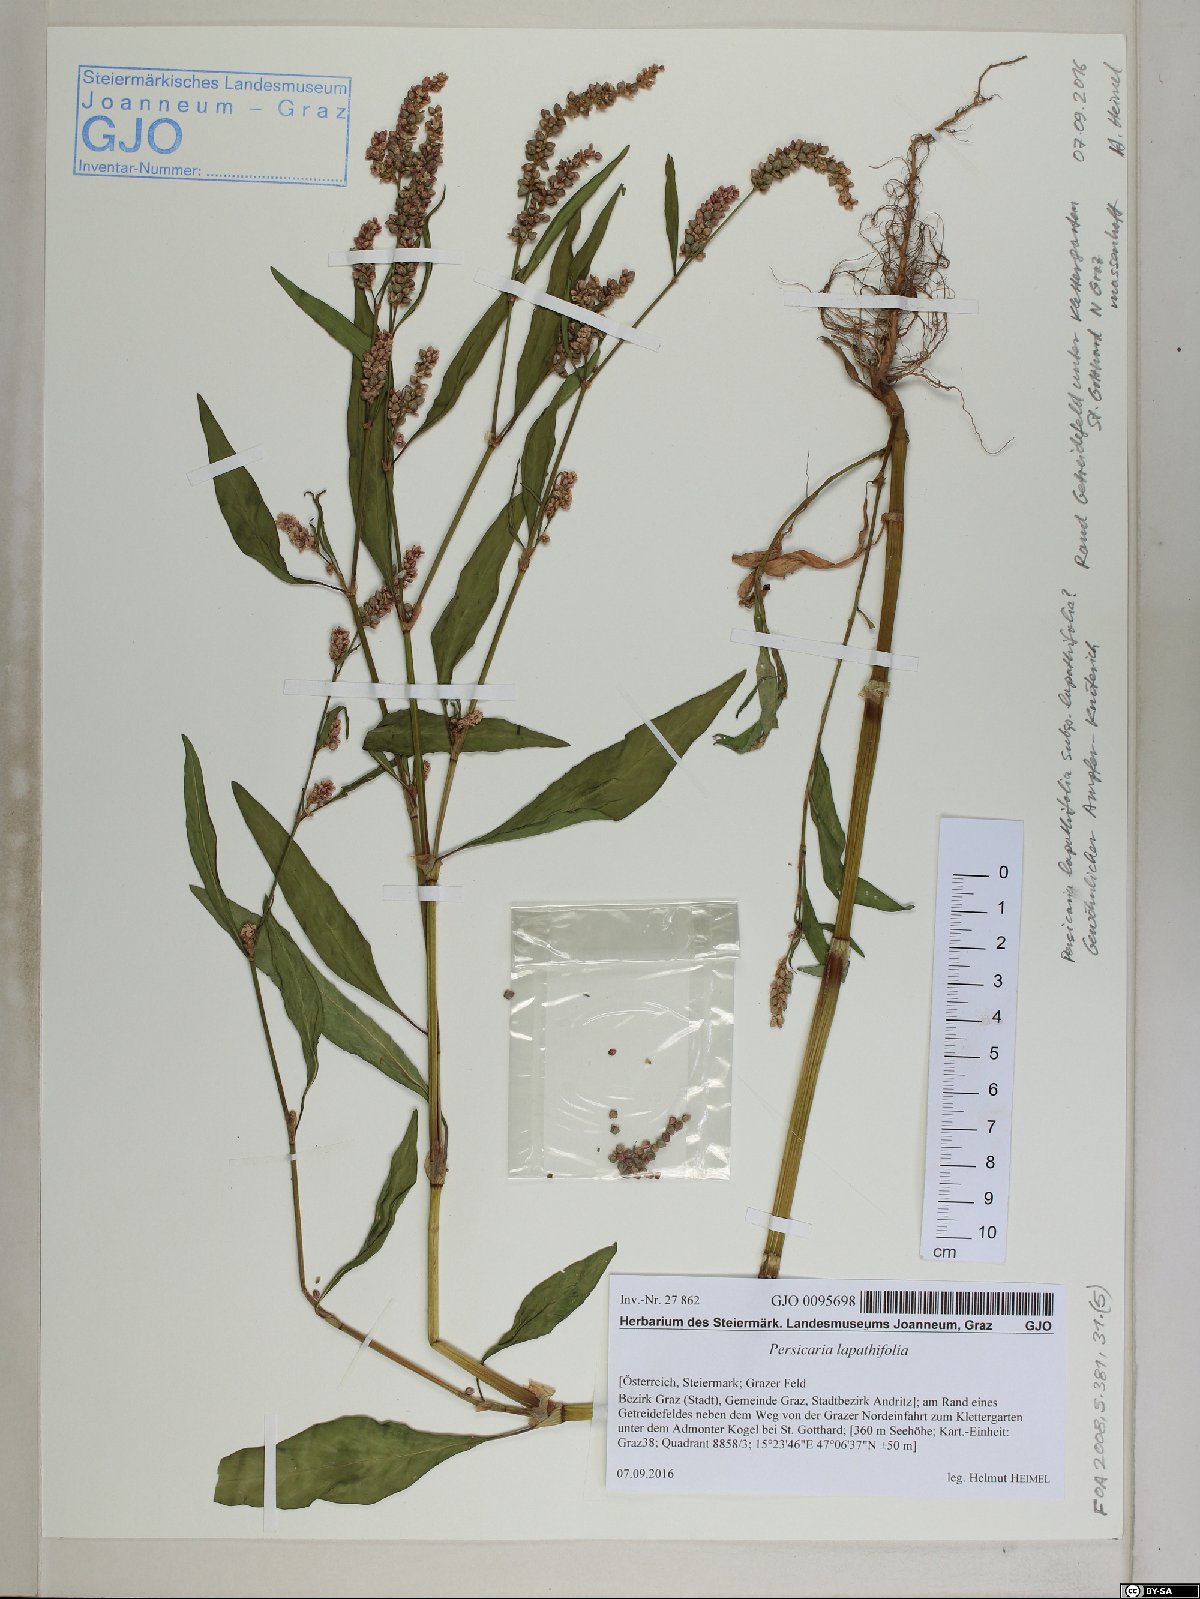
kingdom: Plantae
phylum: Tracheophyta
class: Magnoliopsida
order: Caryophyllales
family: Polygonaceae
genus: Persicaria
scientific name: Persicaria lapathifolia
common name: Curlytop knotweed
